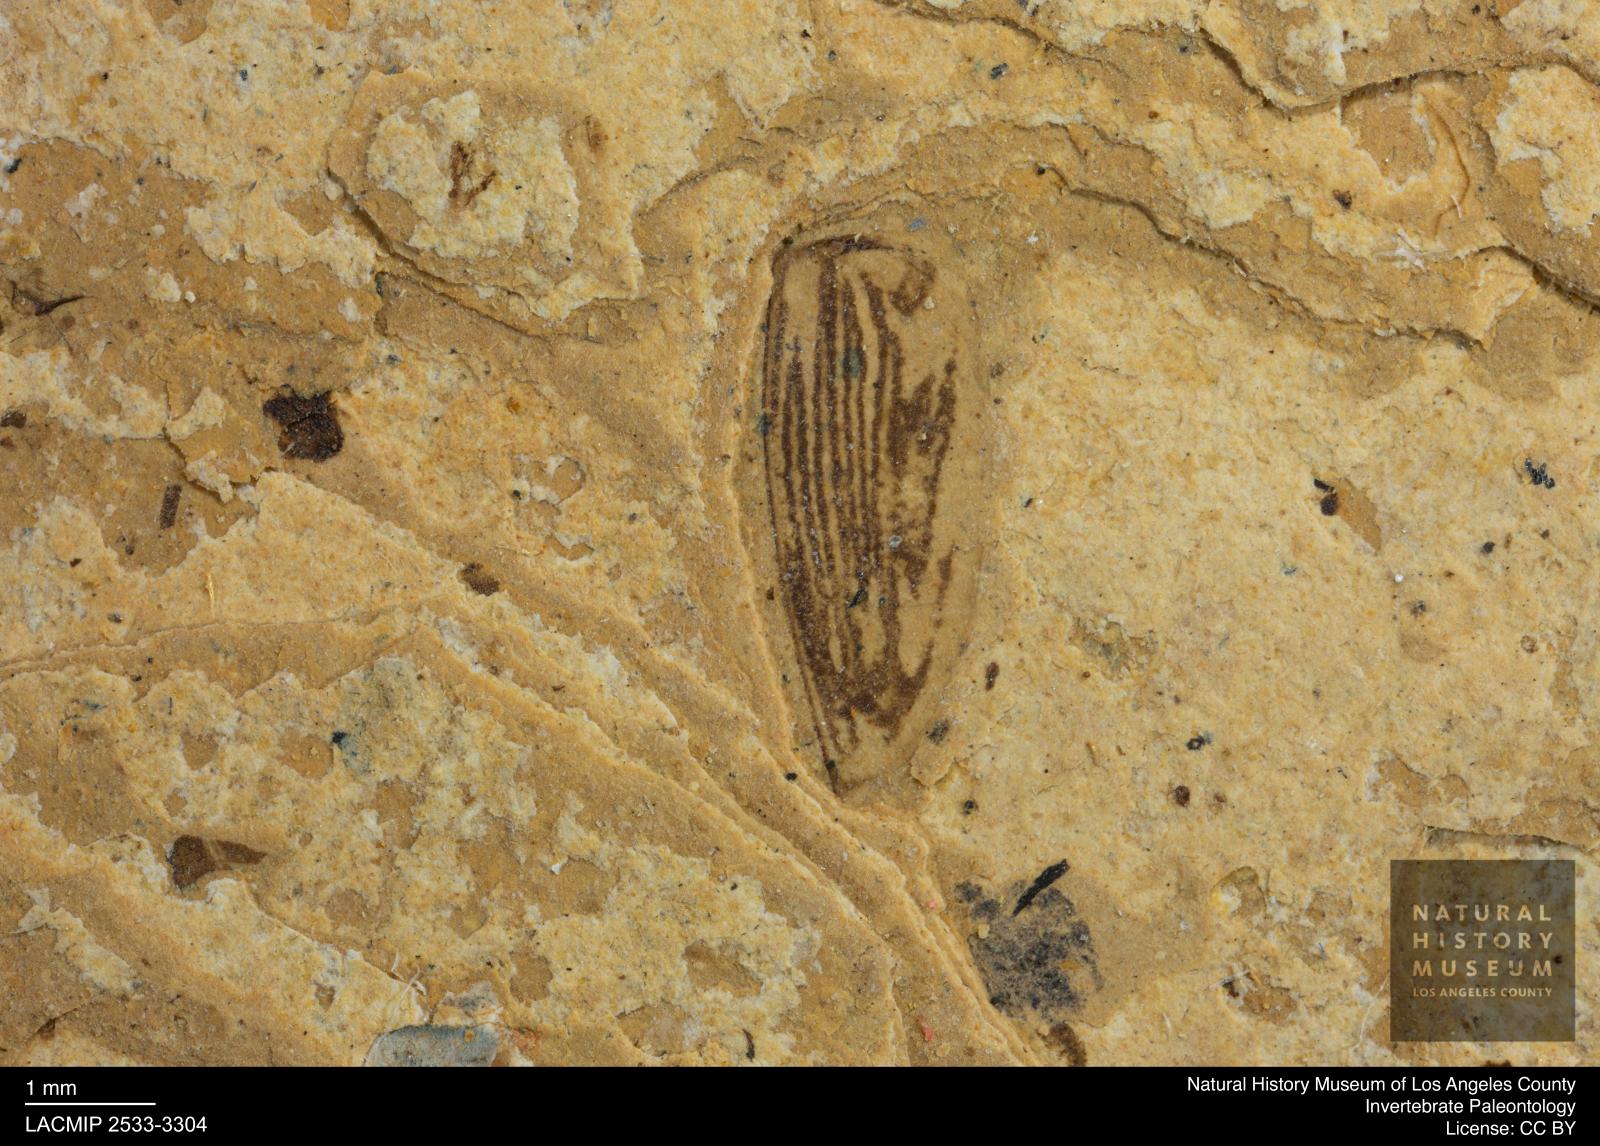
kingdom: Animalia
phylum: Arthropoda
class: Insecta
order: Coleoptera
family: Dytiscidae
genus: Laccophilus
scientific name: Laccophilus Palaeogyrinus strigatus
